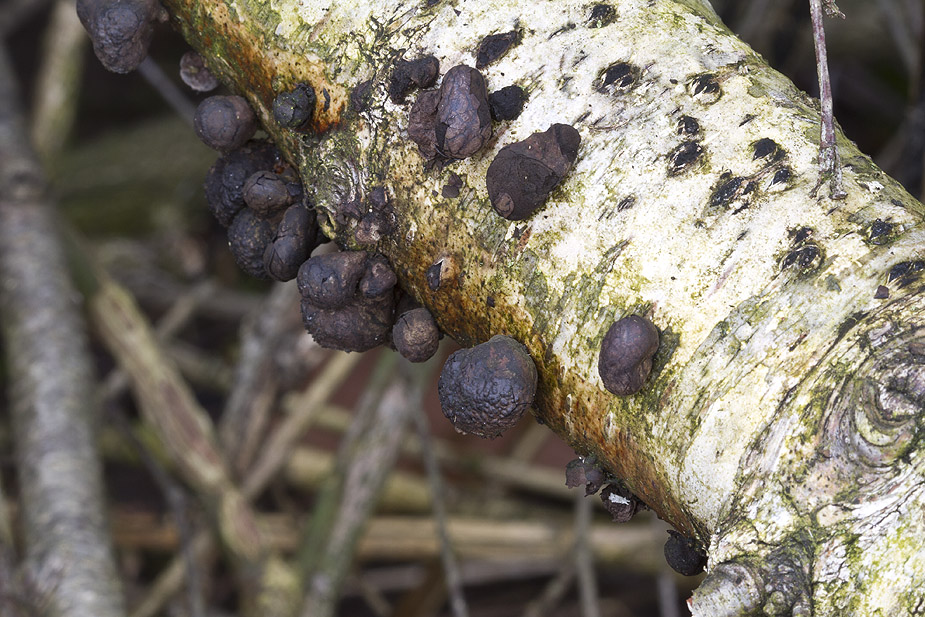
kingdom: Fungi
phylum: Ascomycota
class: Sordariomycetes
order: Xylariales
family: Hypoxylaceae
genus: Daldinia
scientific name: Daldinia decipiens
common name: stilket bæltekugle
